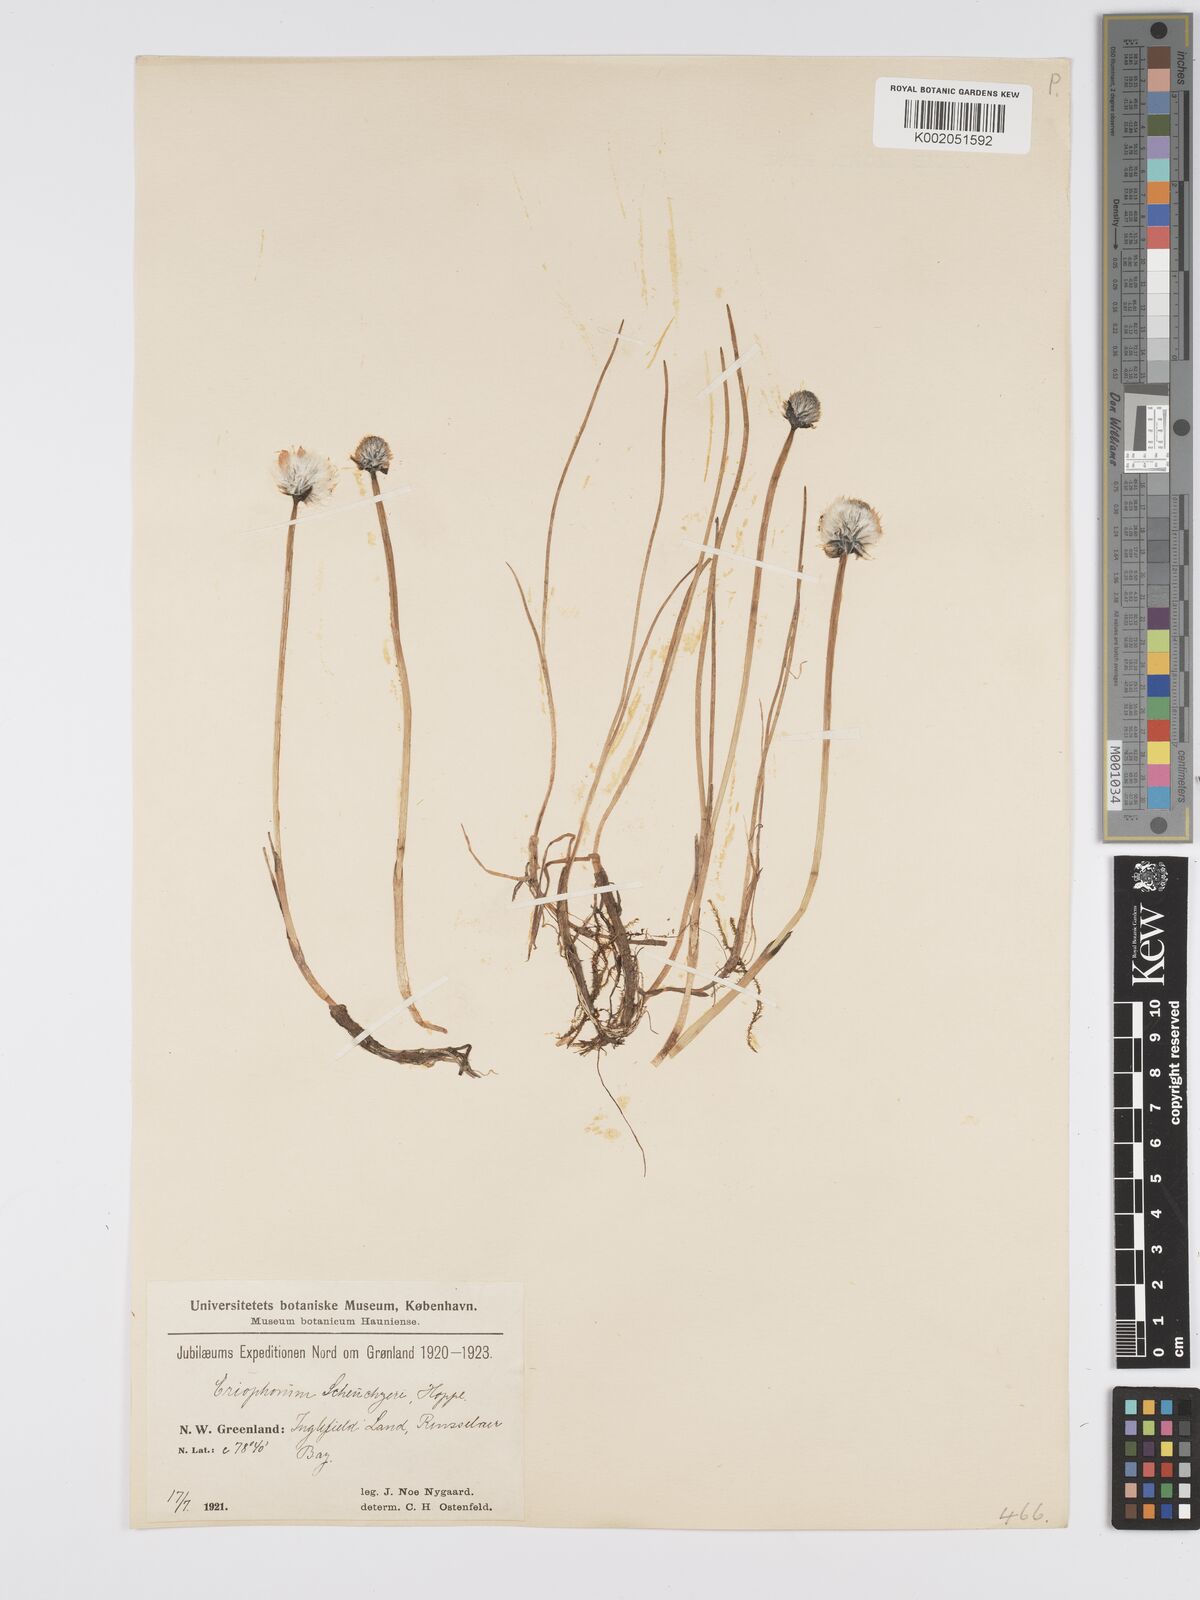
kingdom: Plantae
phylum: Tracheophyta
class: Liliopsida
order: Poales
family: Cyperaceae
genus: Eriophorum
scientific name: Eriophorum scheuchzeri
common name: Scheuchzer's cottongrass
